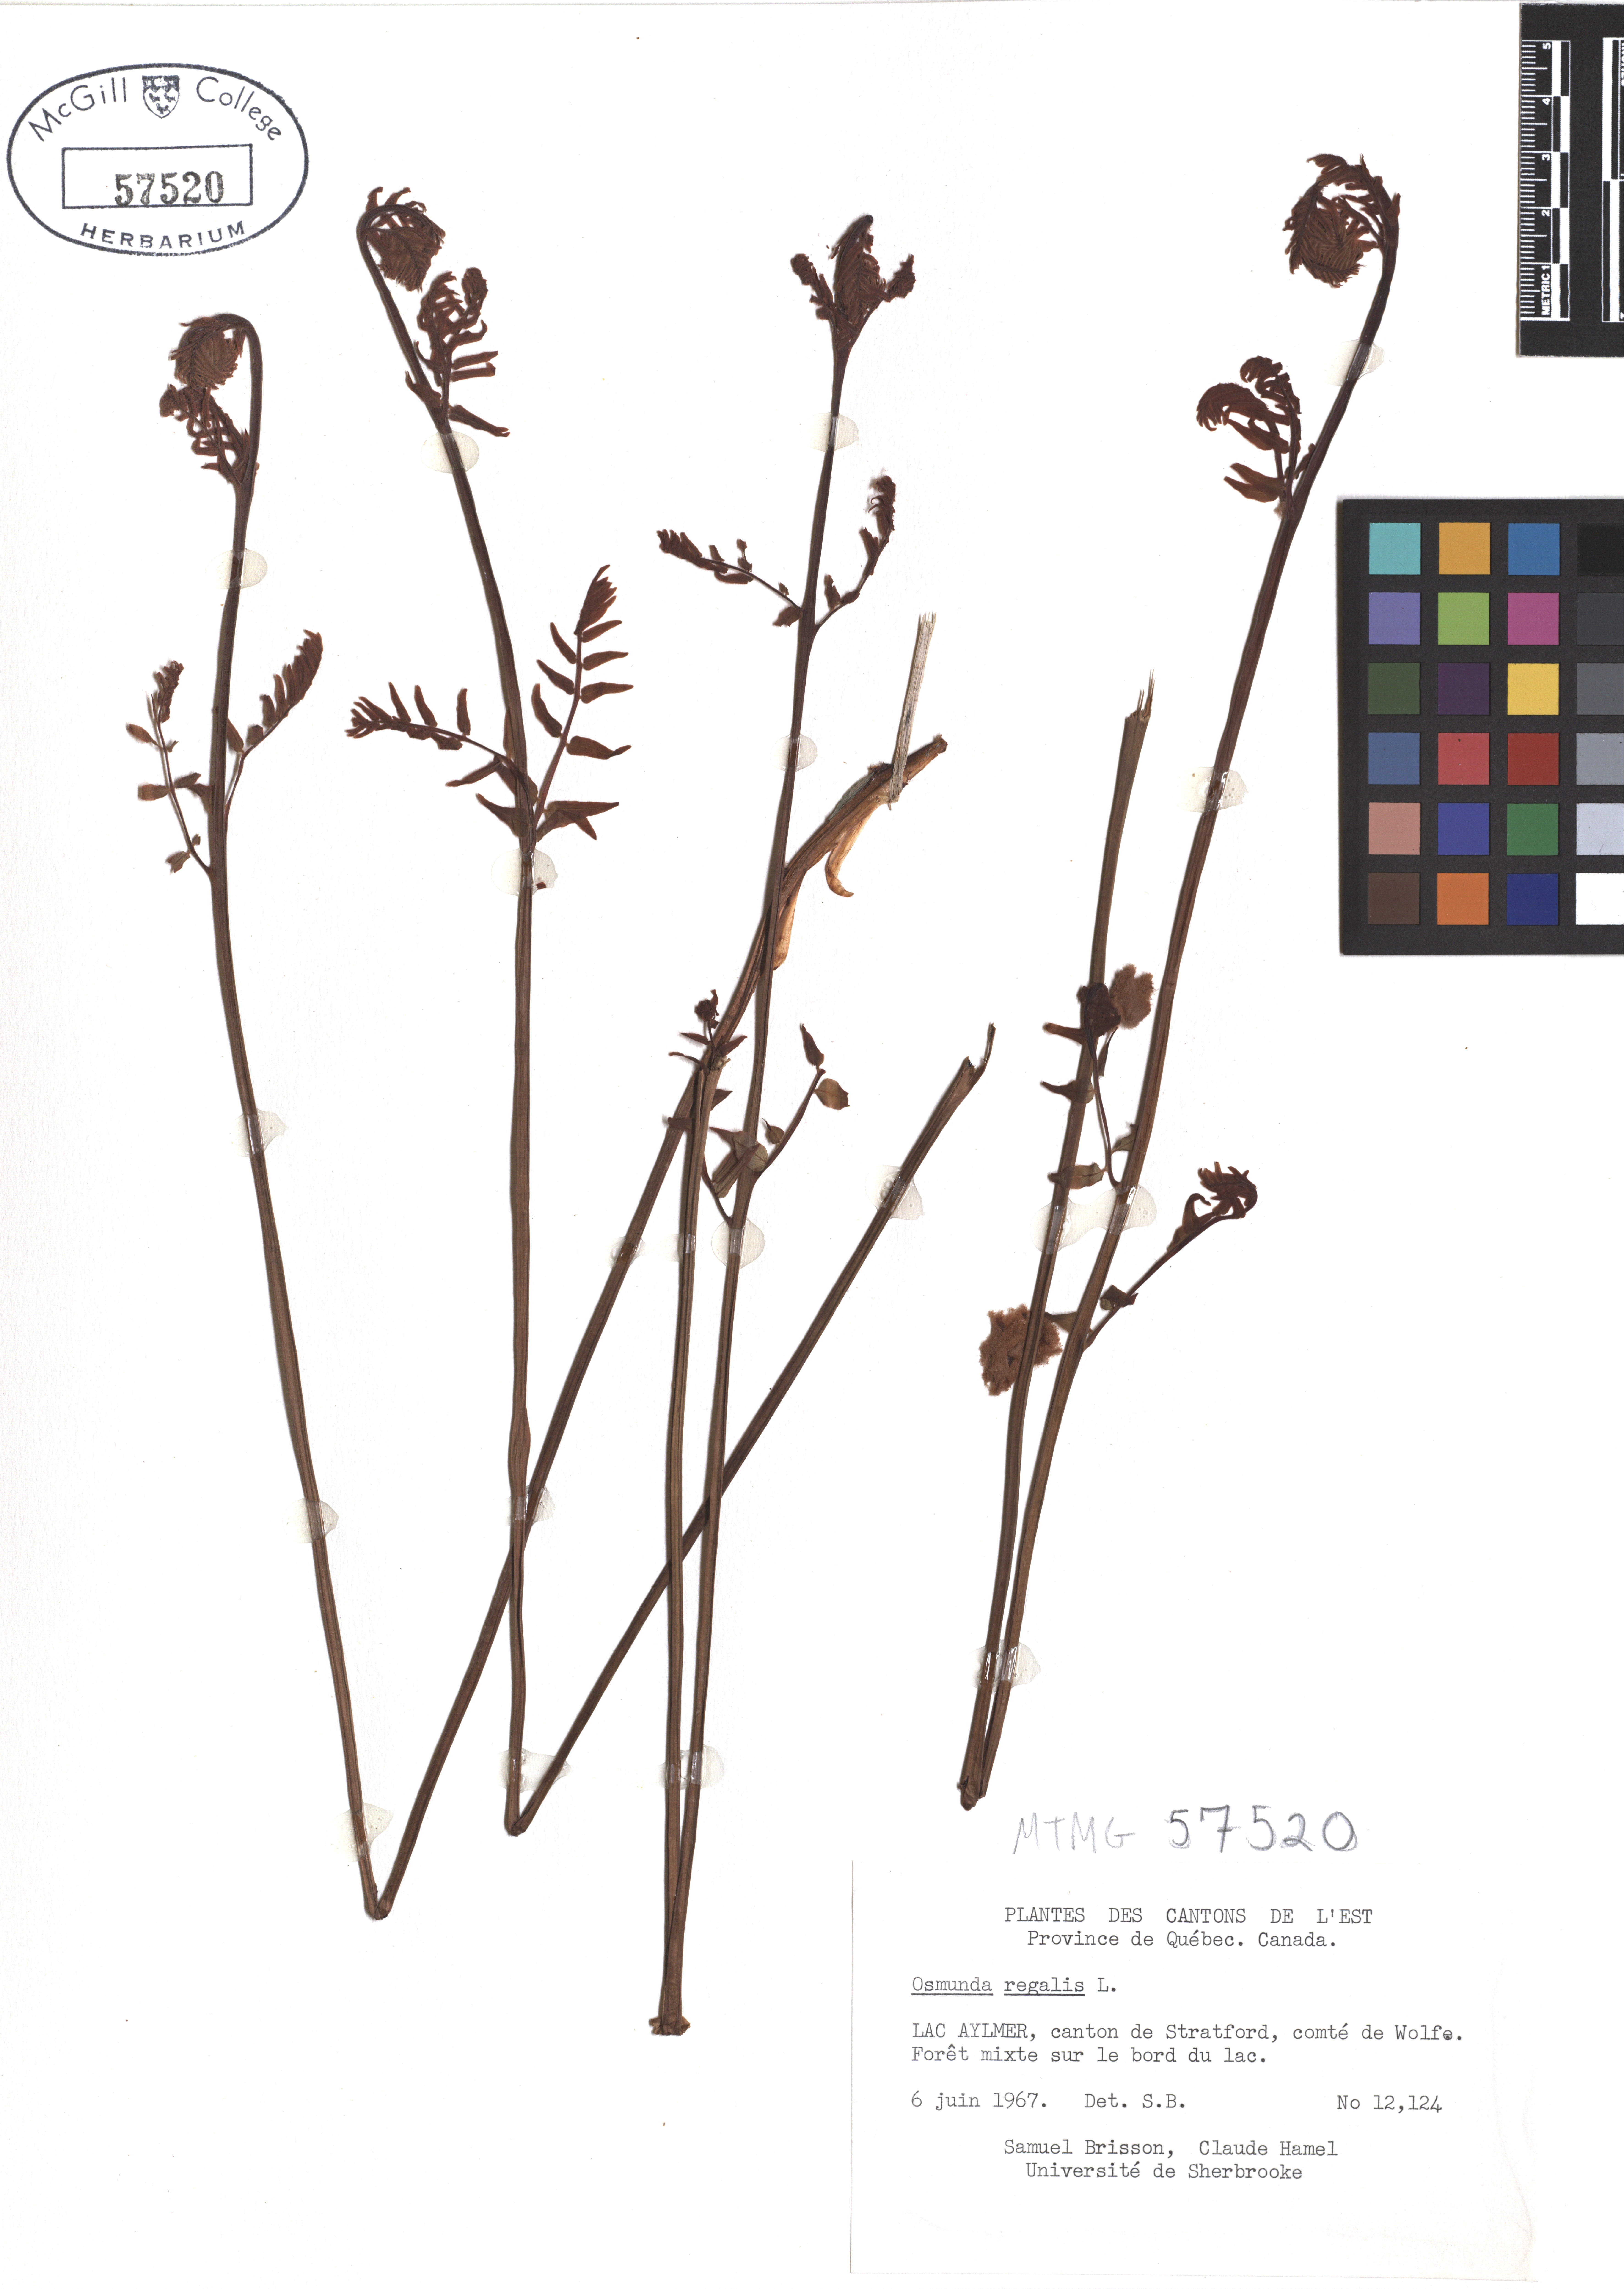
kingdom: Plantae
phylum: Tracheophyta
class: Polypodiopsida
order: Osmundales
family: Osmundaceae
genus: Osmunda
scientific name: Osmunda regalis
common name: Royal fern
